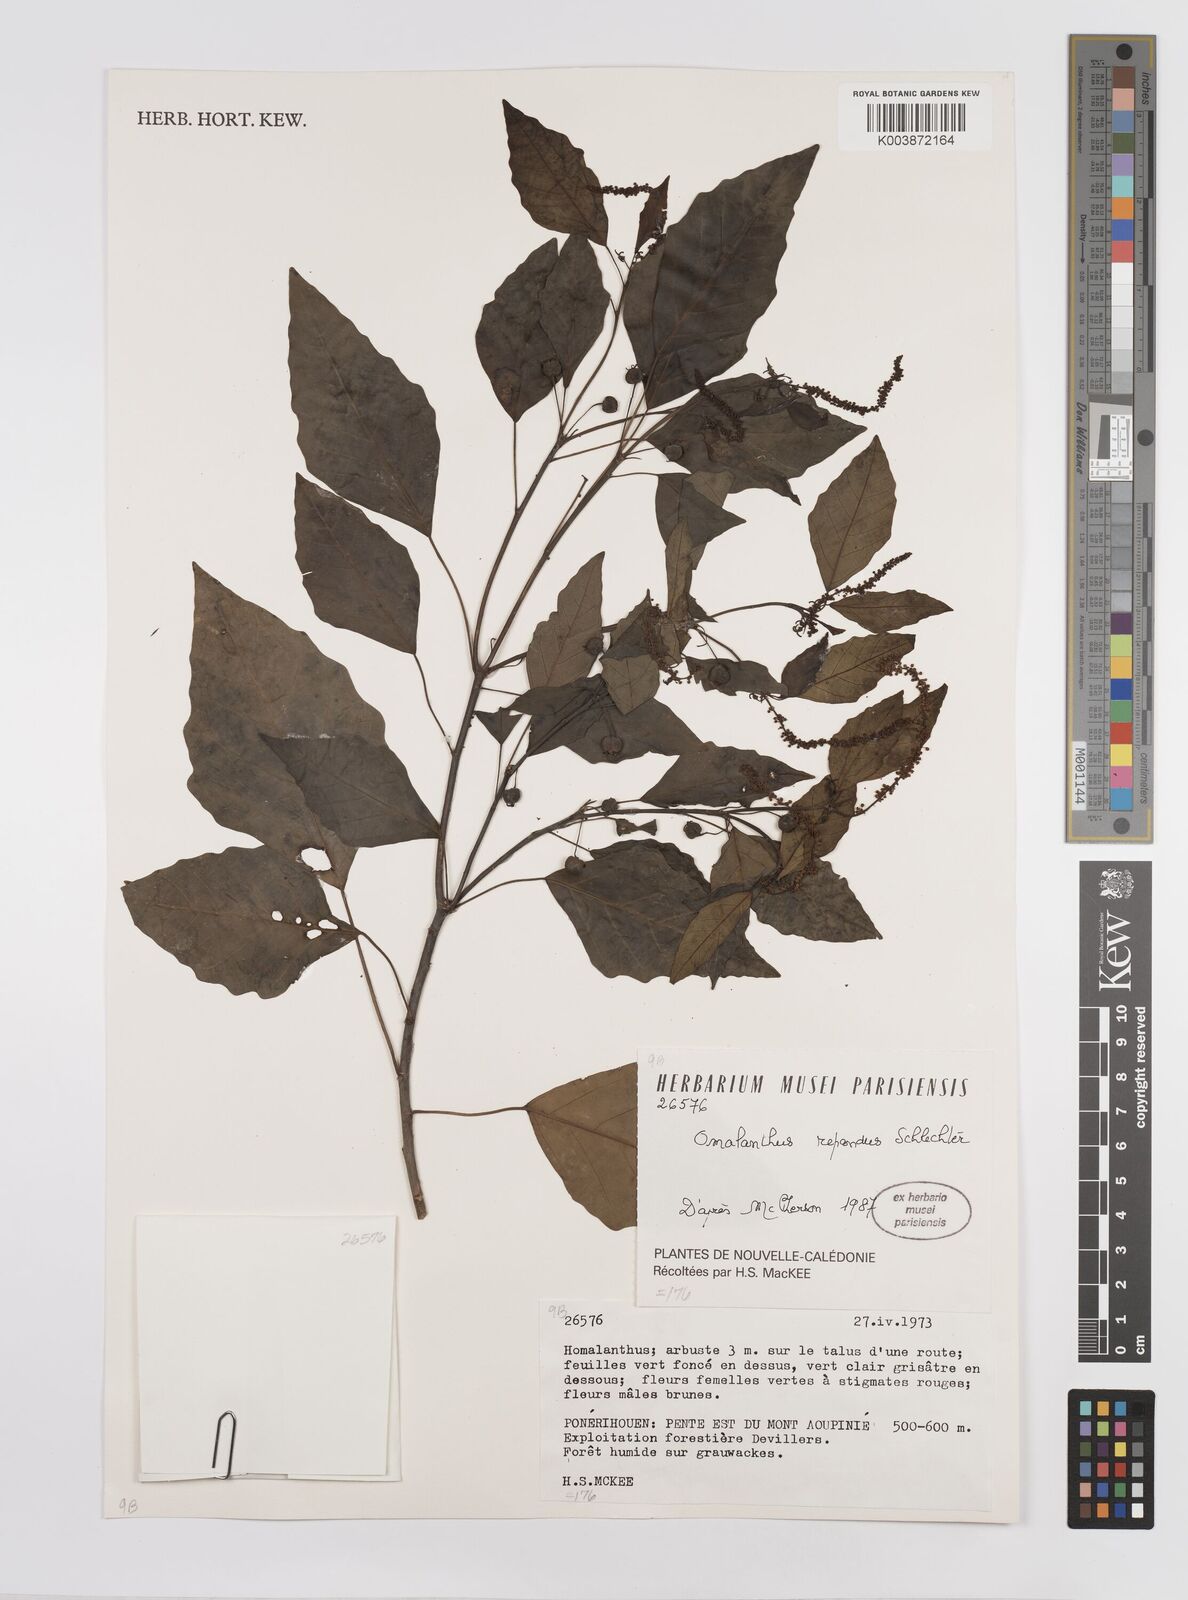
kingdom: Plantae
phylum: Tracheophyta
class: Magnoliopsida
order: Malpighiales
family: Euphorbiaceae
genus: Homalanthus
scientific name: Homalanthus repandus
